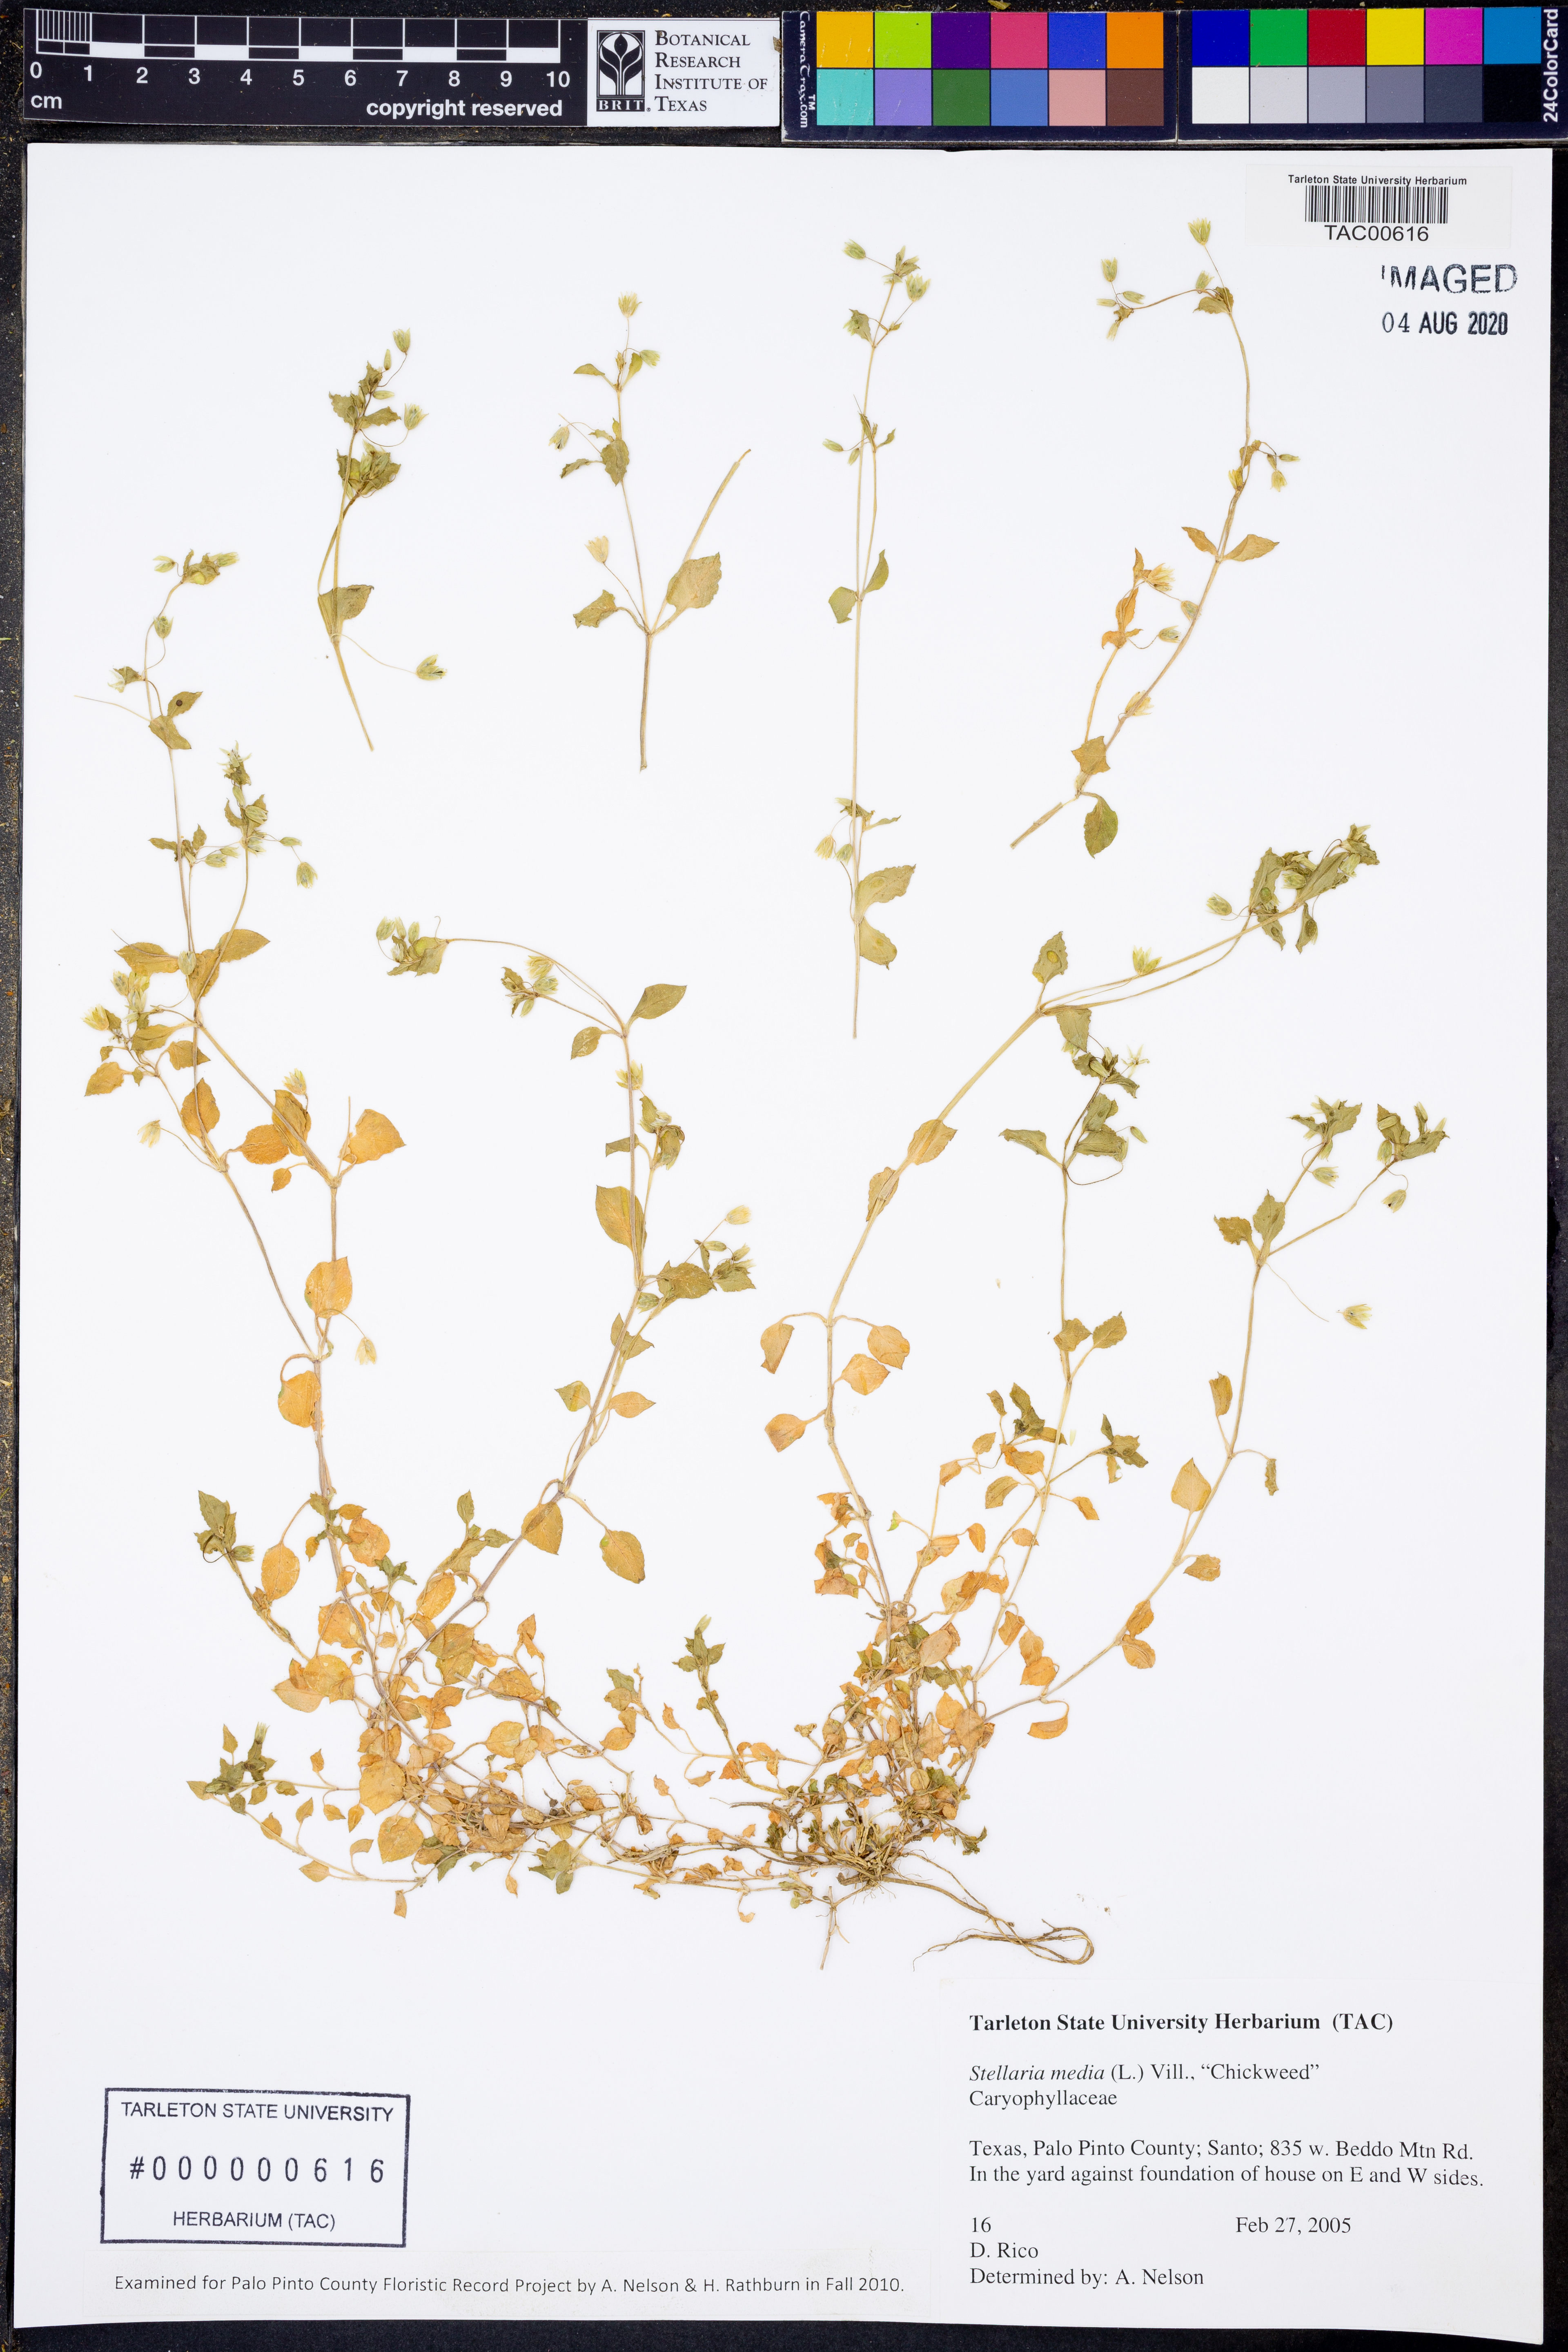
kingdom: Plantae
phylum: Tracheophyta
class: Magnoliopsida
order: Caryophyllales
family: Caryophyllaceae
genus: Stellaria
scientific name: Stellaria media
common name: Common chickweed
